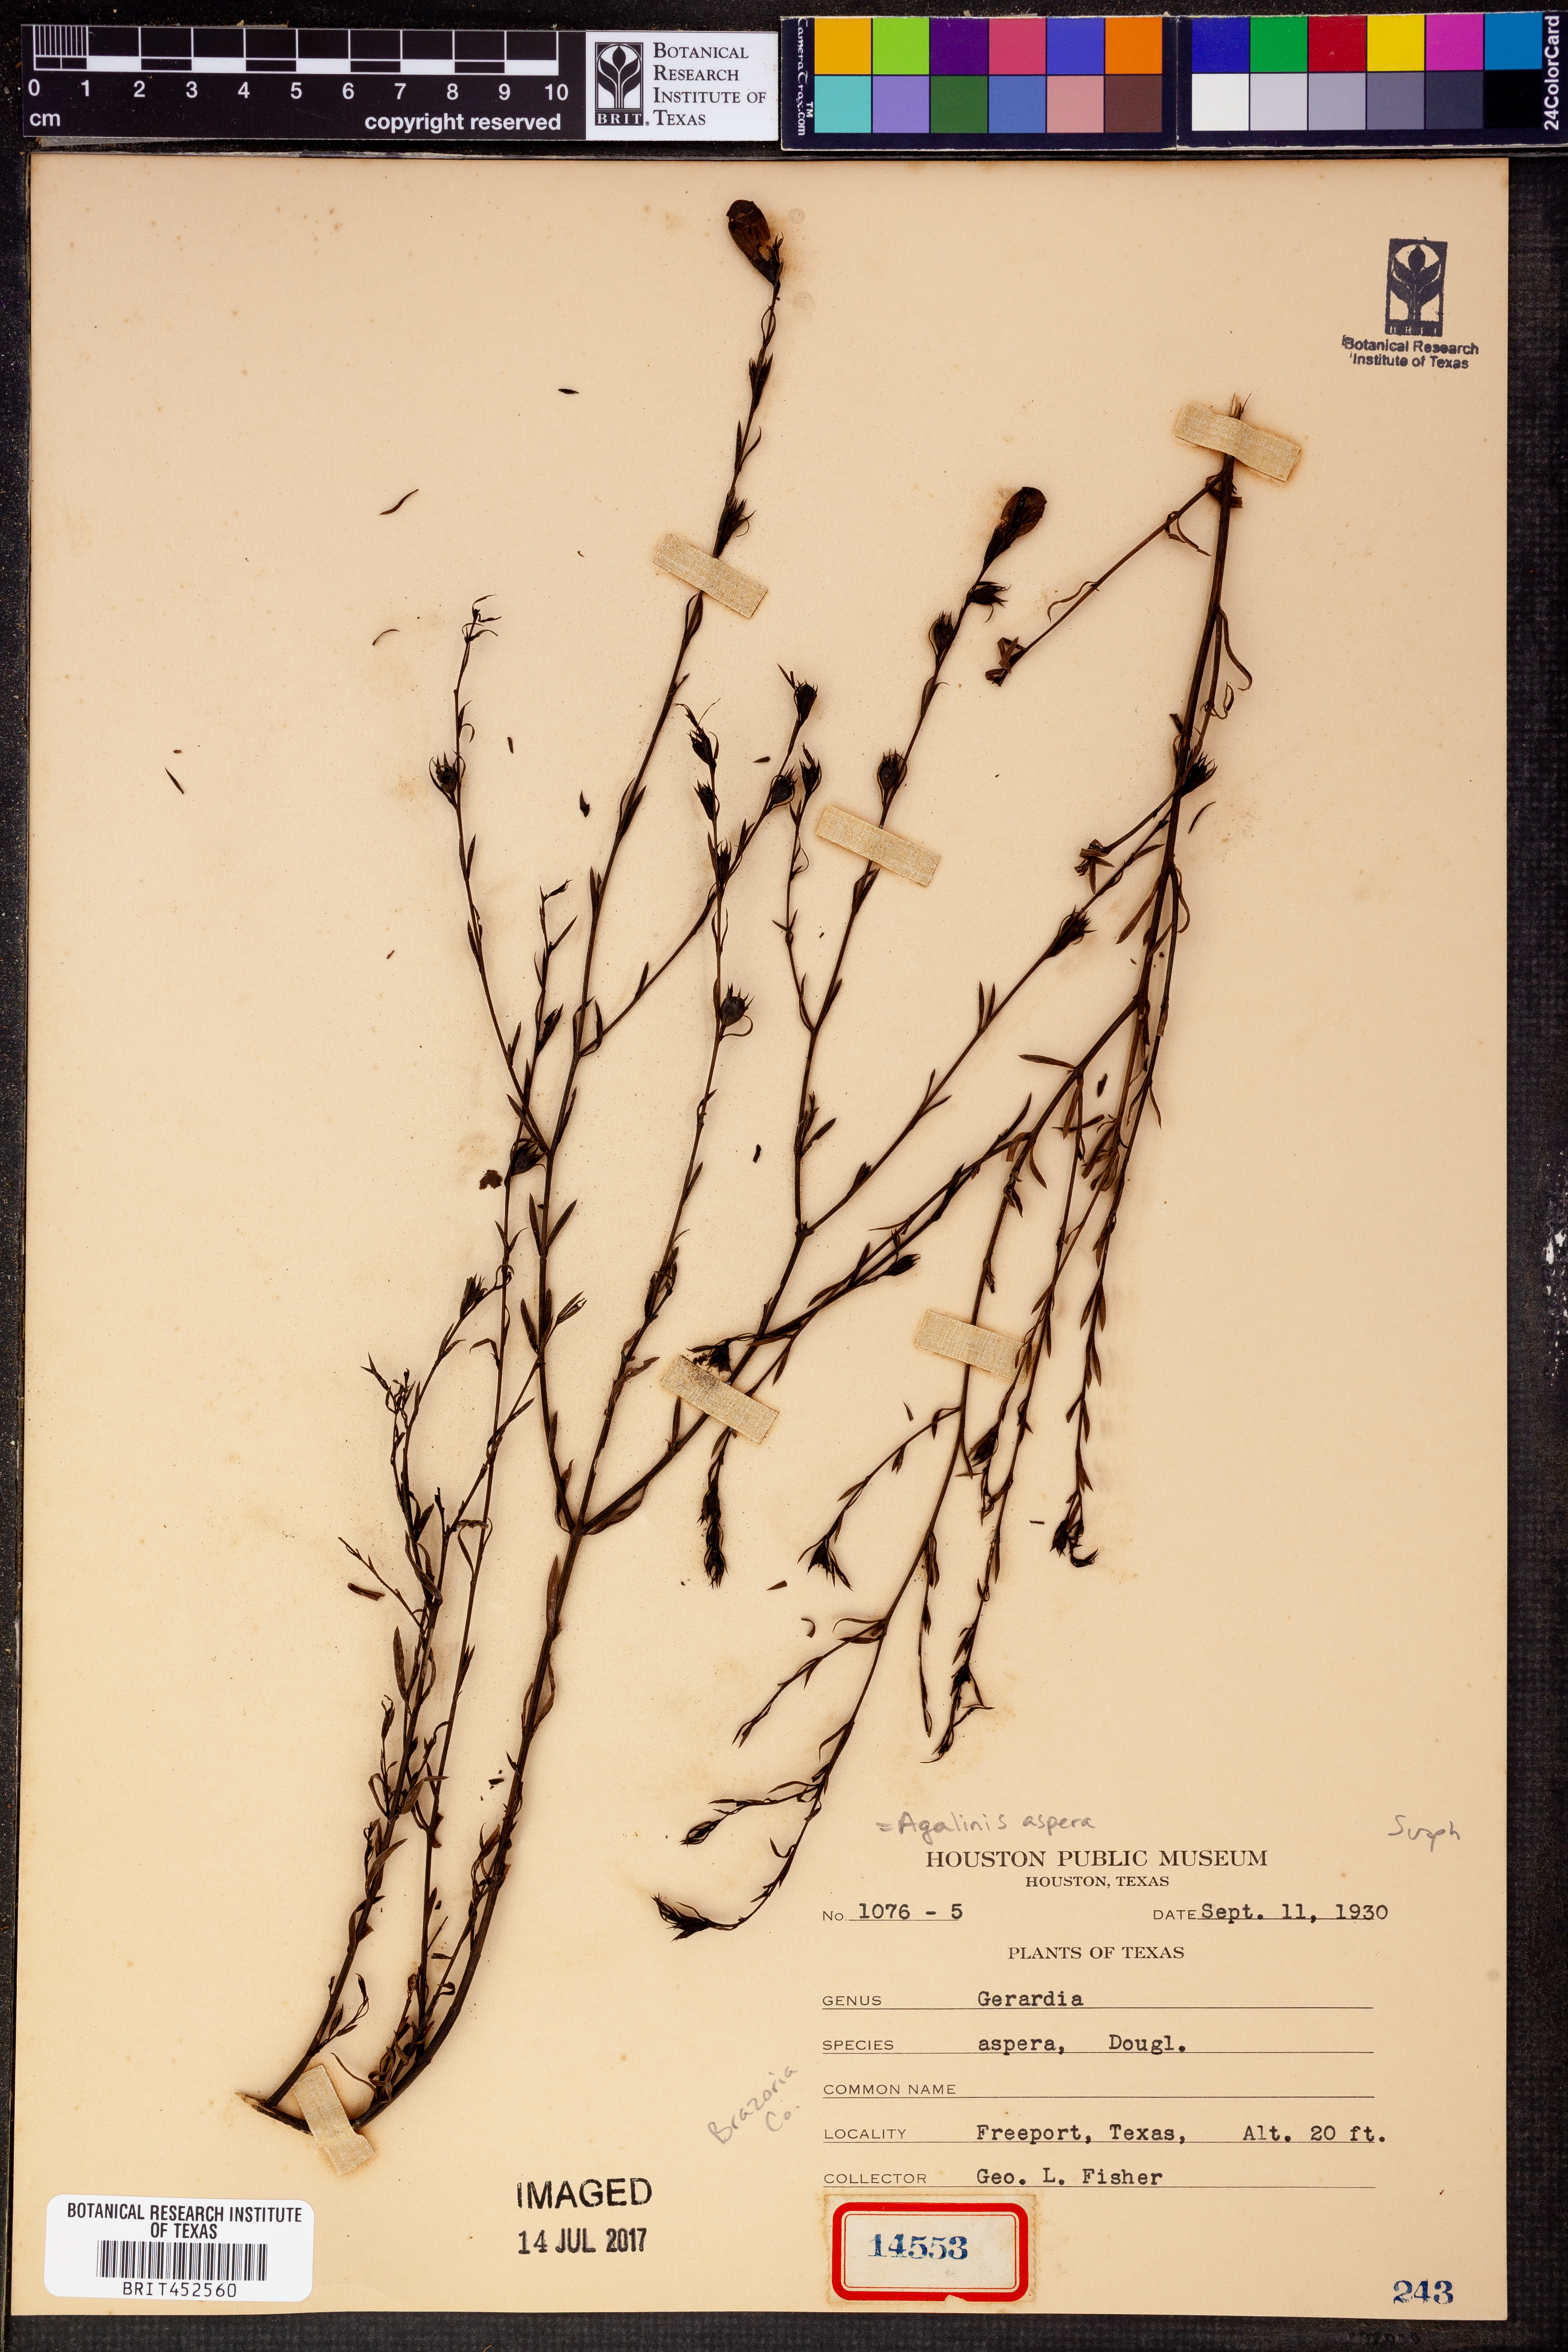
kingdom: Plantae
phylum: Tracheophyta
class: Magnoliopsida
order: Lamiales
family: Orobanchaceae
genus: Agalinis
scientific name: Agalinis aspera
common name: Rough agalinis
